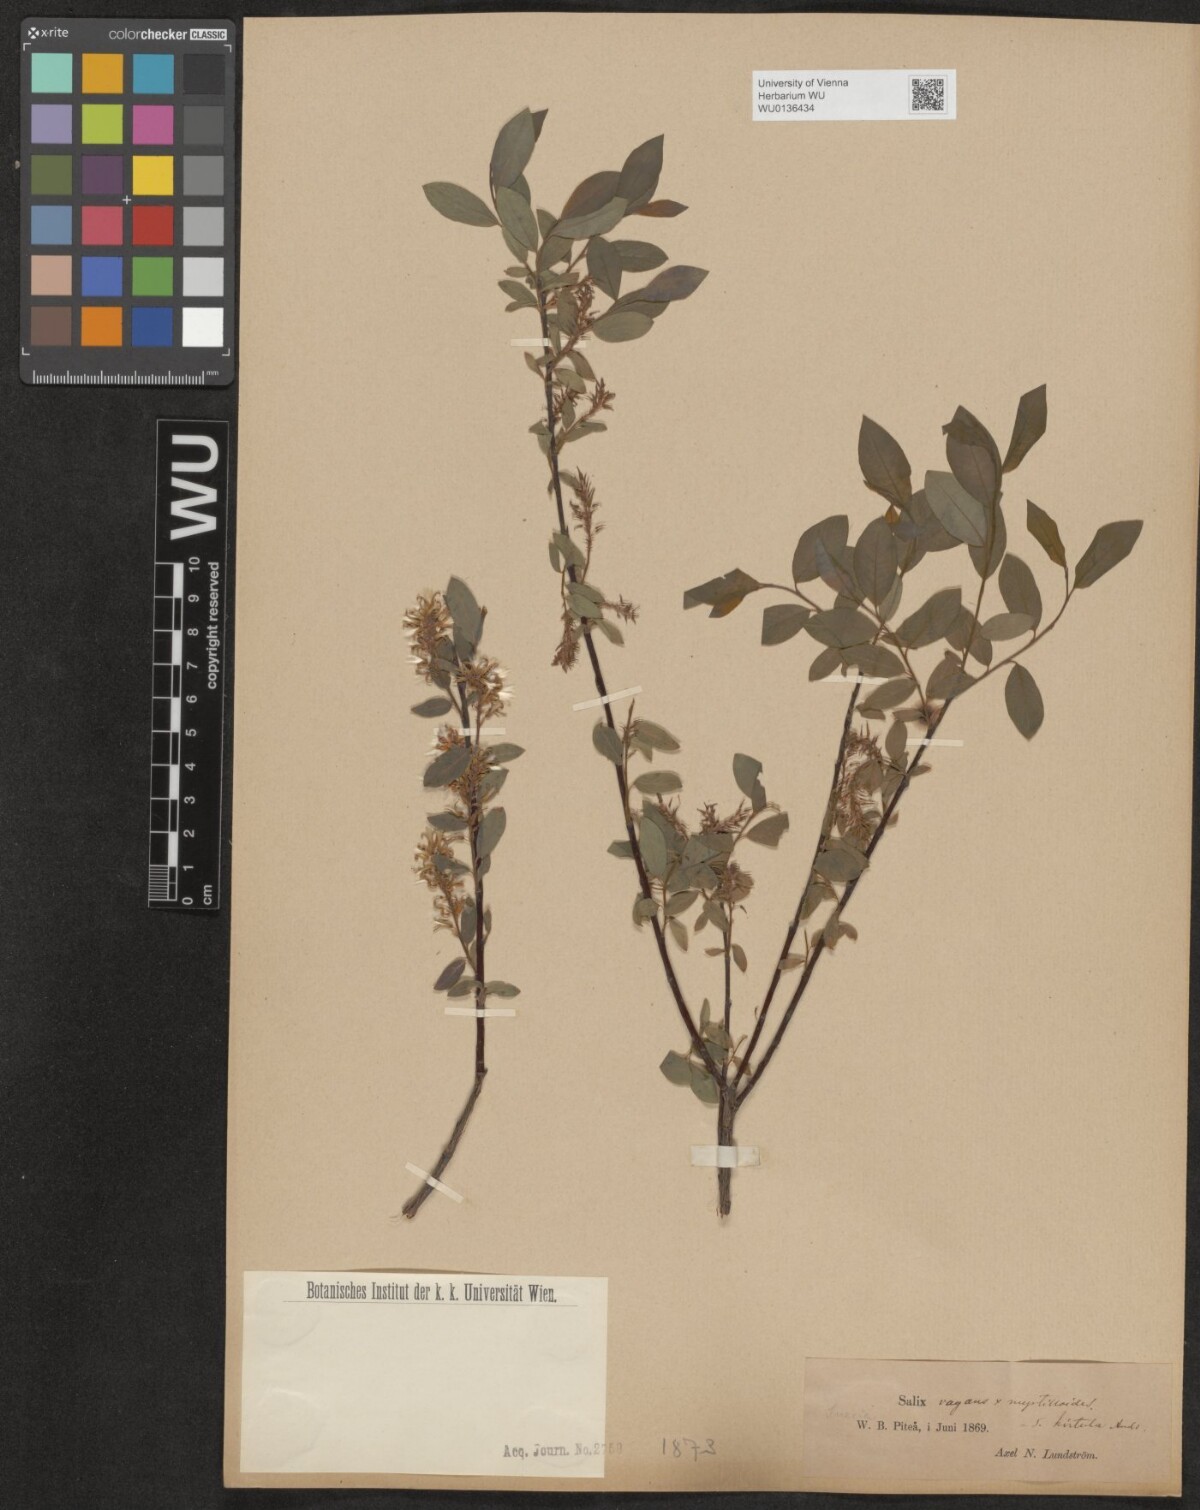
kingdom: Plantae
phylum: Tracheophyta
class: Magnoliopsida
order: Malpighiales
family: Salicaceae
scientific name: Salicaceae
